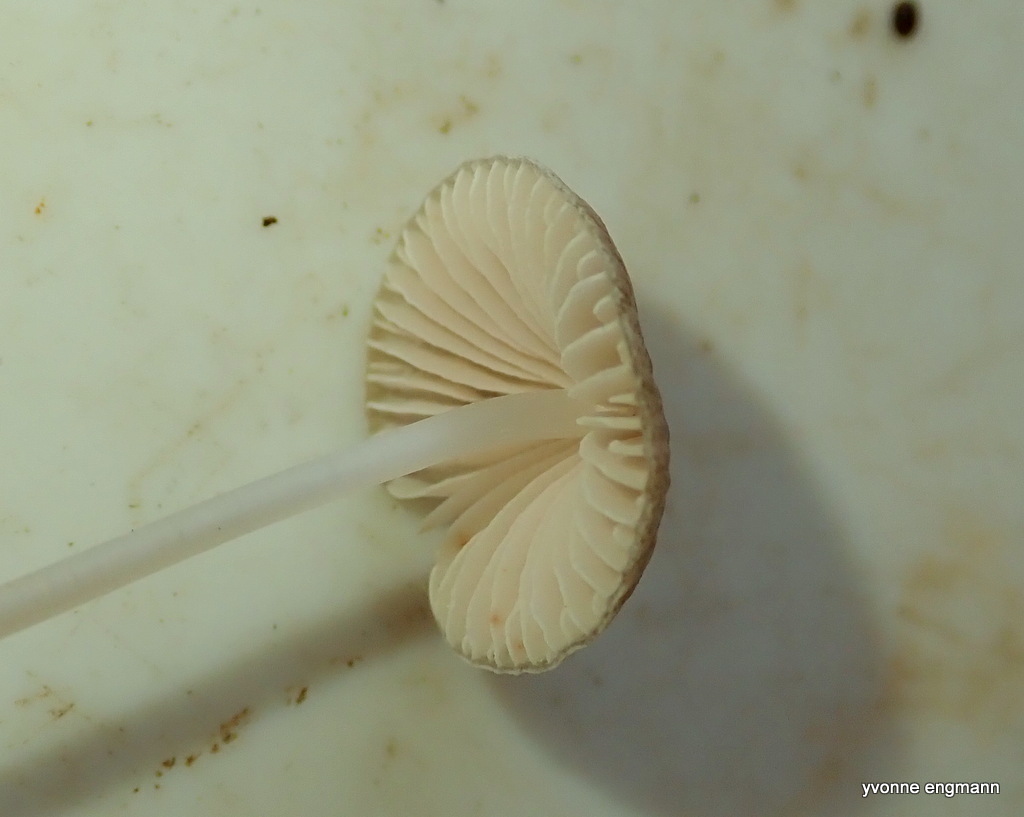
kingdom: Fungi
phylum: Basidiomycota
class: Agaricomycetes
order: Agaricales
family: Mycenaceae
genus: Mycena
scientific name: Mycena vitilis
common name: blankstokket huesvamp
